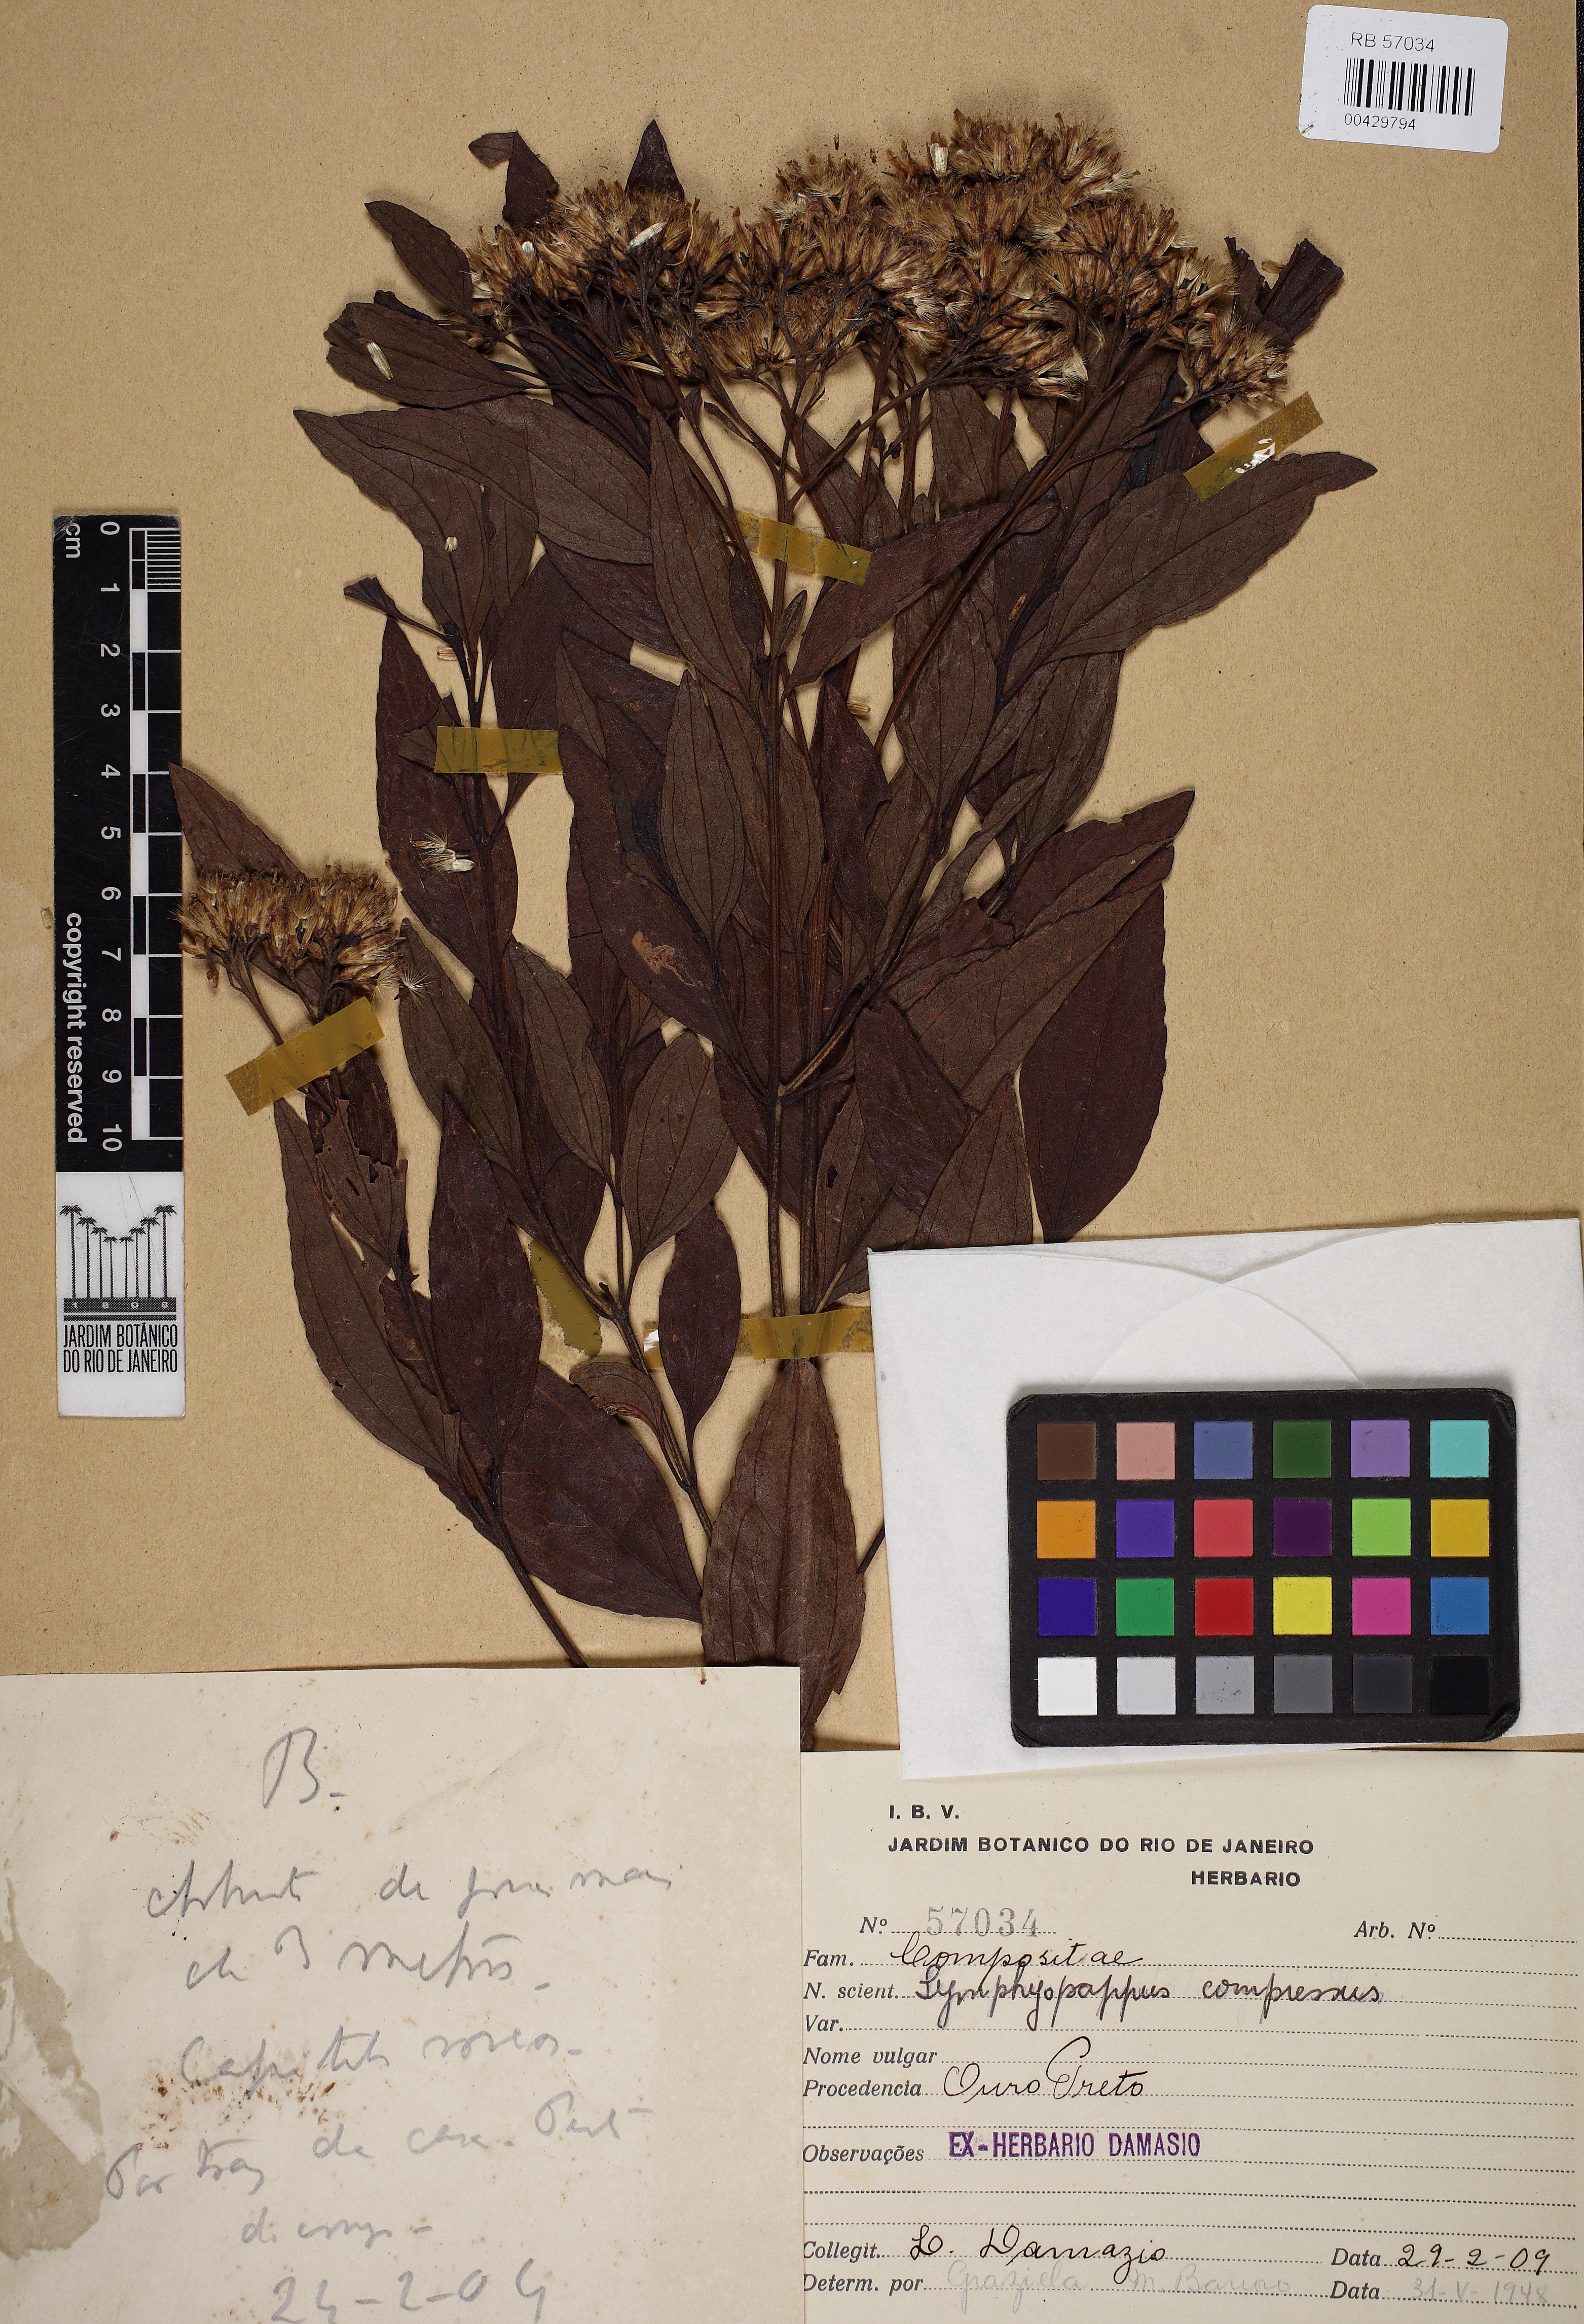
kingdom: Plantae
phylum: Tracheophyta
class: Magnoliopsida
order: Asterales
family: Asteraceae
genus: Symphyopappus
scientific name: Symphyopappus compressus
